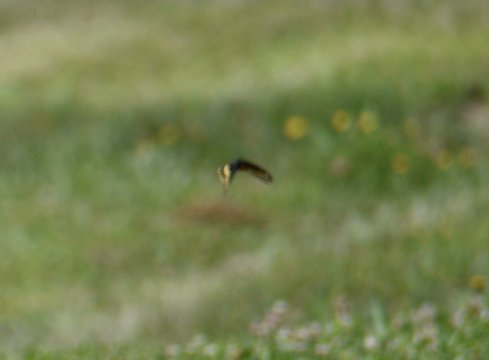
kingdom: Animalia
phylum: Arthropoda
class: Insecta
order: Lepidoptera
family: Papilionidae
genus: Papilio
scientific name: Papilio polyxenes
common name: Black Swallowtail
